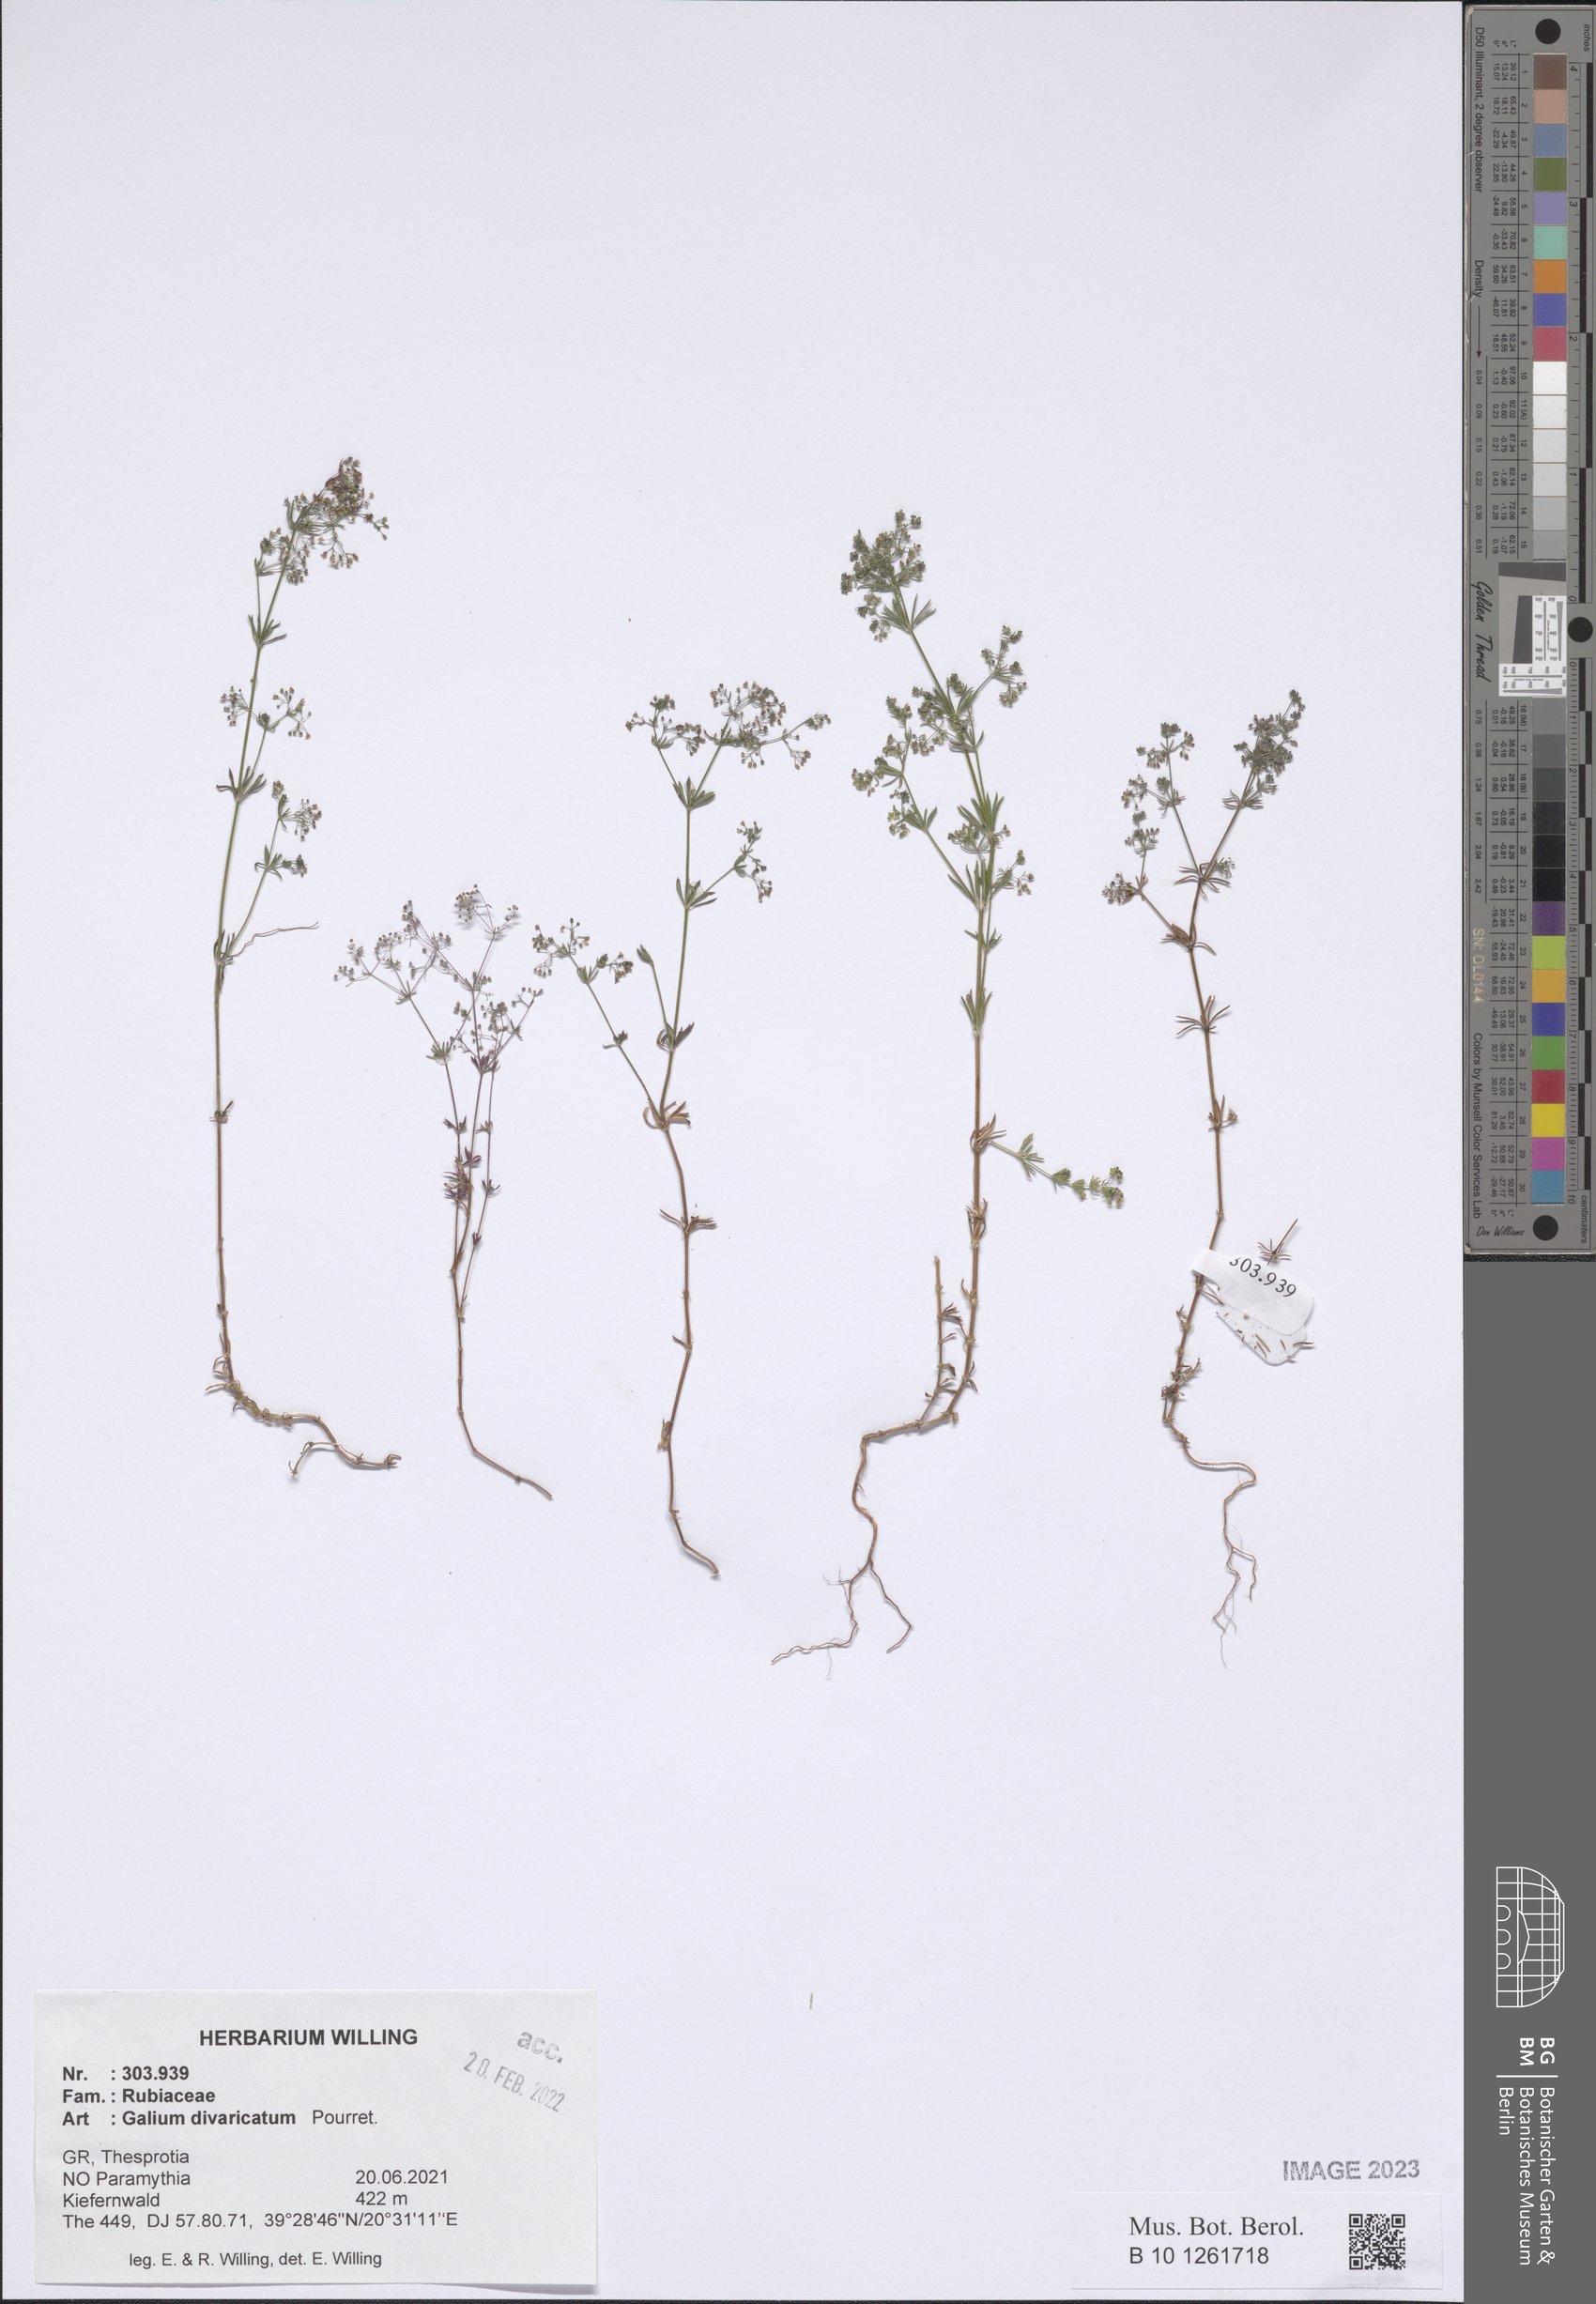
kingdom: Plantae
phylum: Tracheophyta
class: Magnoliopsida
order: Gentianales
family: Rubiaceae
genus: Galium
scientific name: Galium divaricatum
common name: Lamarck's bedstraw
